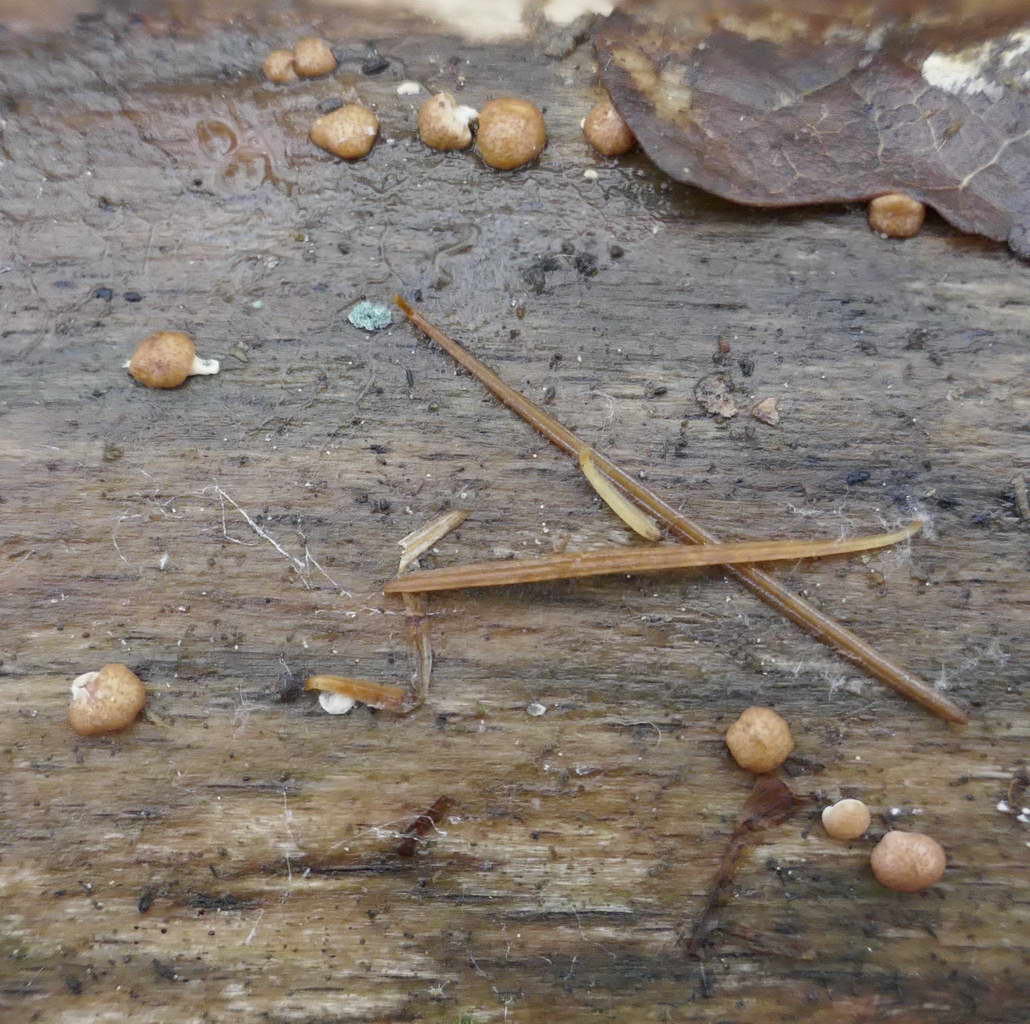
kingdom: Fungi
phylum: Ascomycota
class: Sordariomycetes
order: Hypocreales
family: Hypocreaceae
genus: Trichoderma
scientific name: Trichoderma europaeum
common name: rosabrun kødkerne
